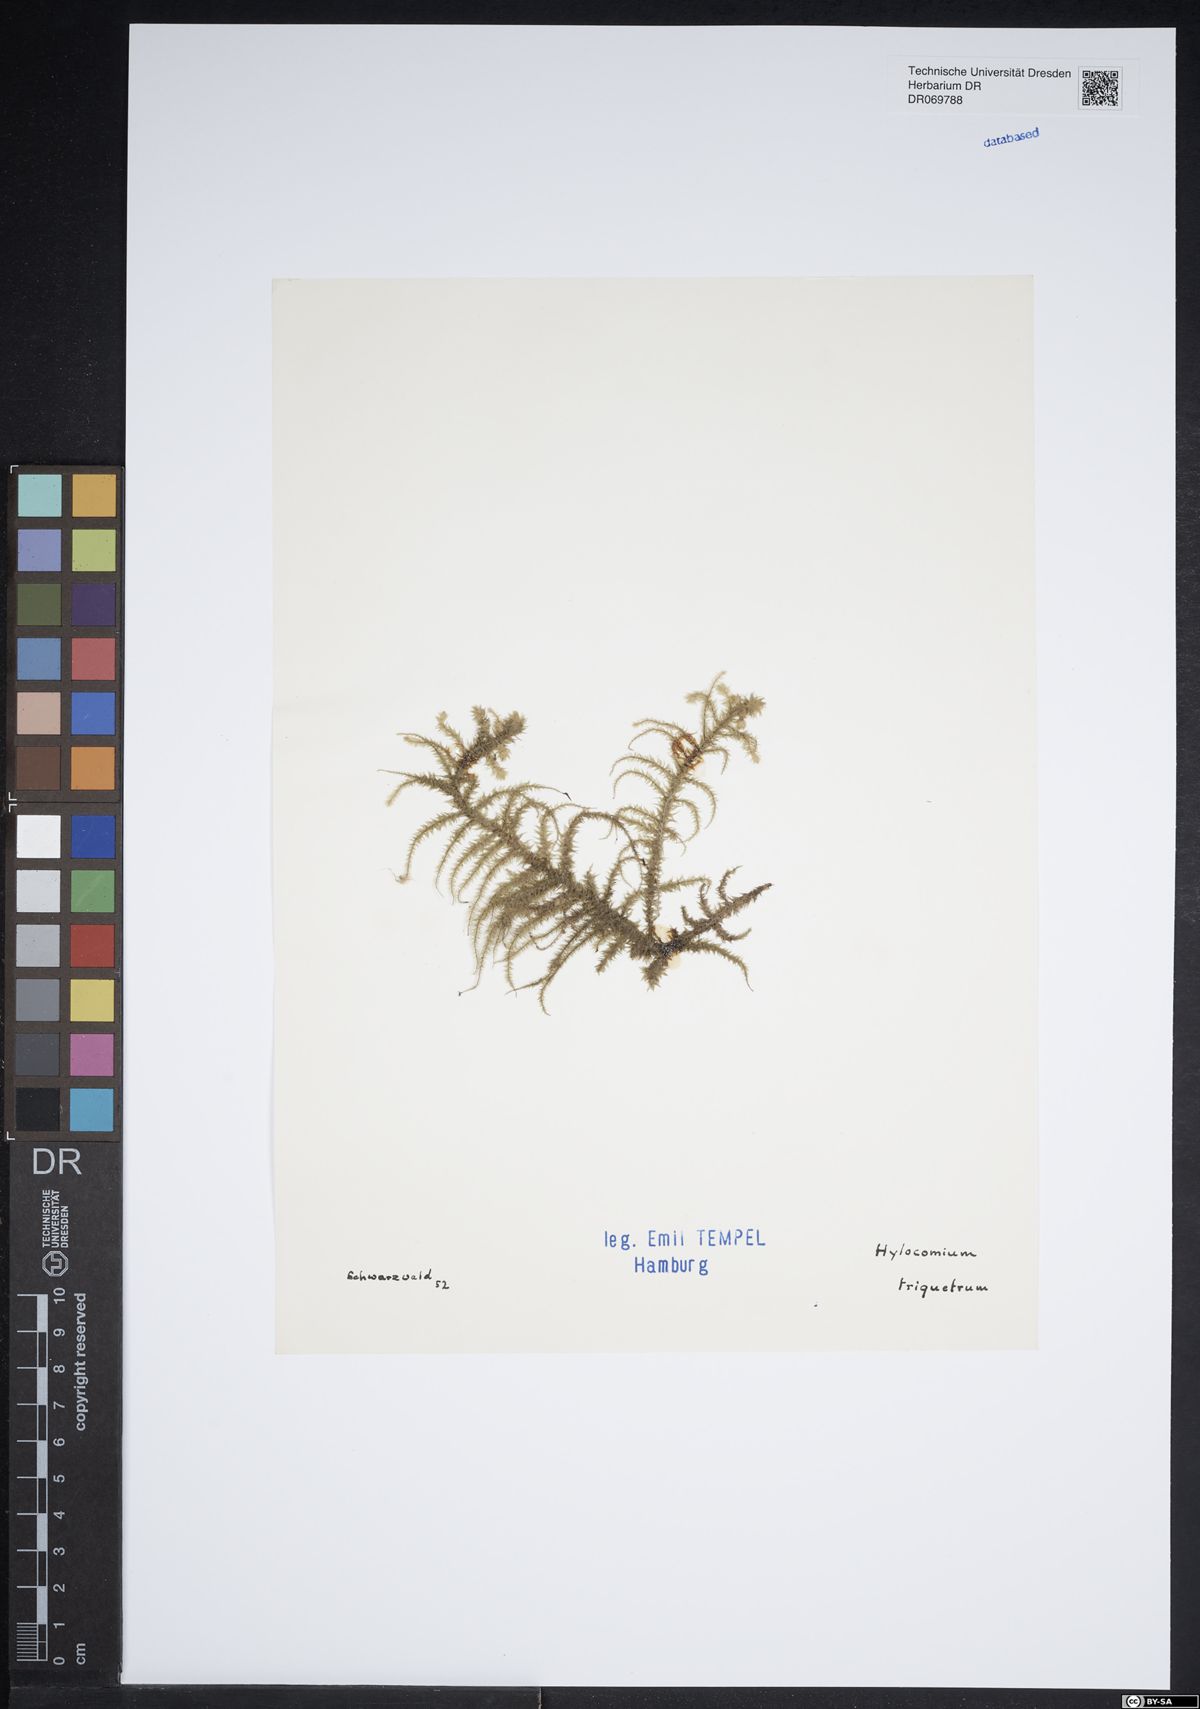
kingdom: Plantae
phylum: Bryophyta
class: Bryopsida
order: Hypnales
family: Hylocomiaceae
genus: Hylocomiadelphus
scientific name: Hylocomiadelphus triquetrus
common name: Rough goose neck moss
